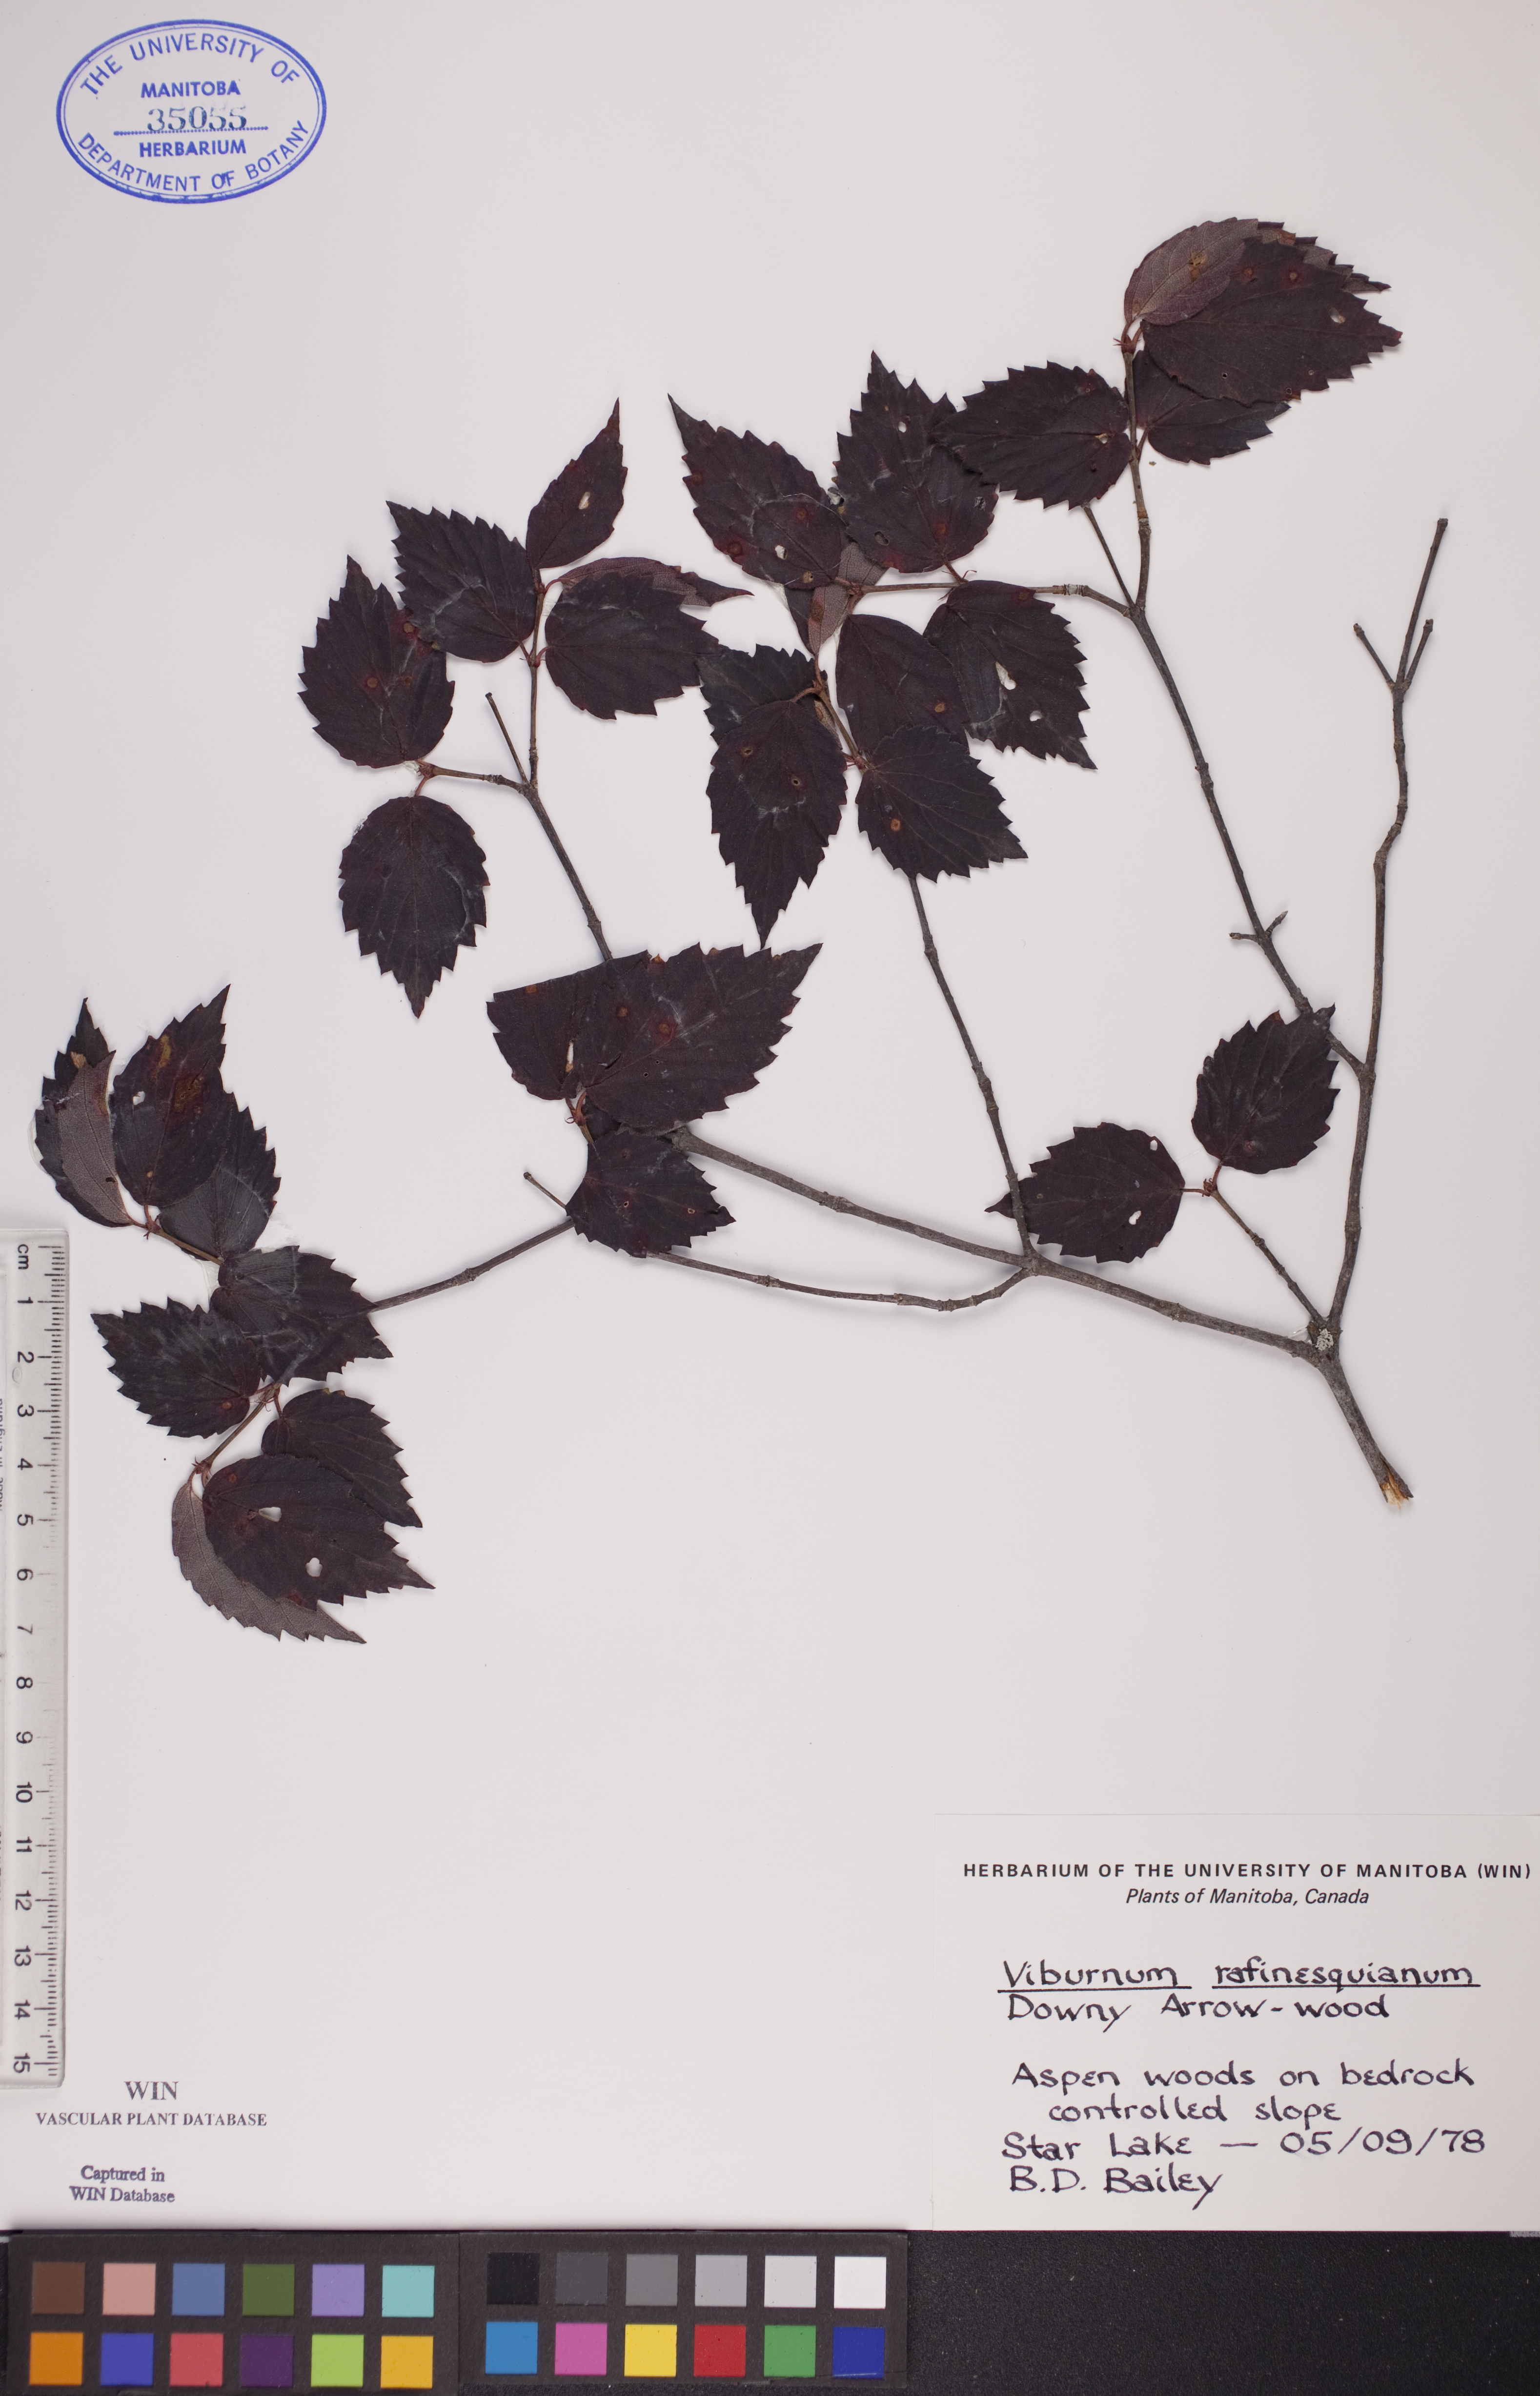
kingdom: Plantae
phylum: Tracheophyta
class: Magnoliopsida
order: Dipsacales
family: Viburnaceae
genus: Viburnum
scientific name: Viburnum rafinesquianum
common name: Downy arrow-wood
